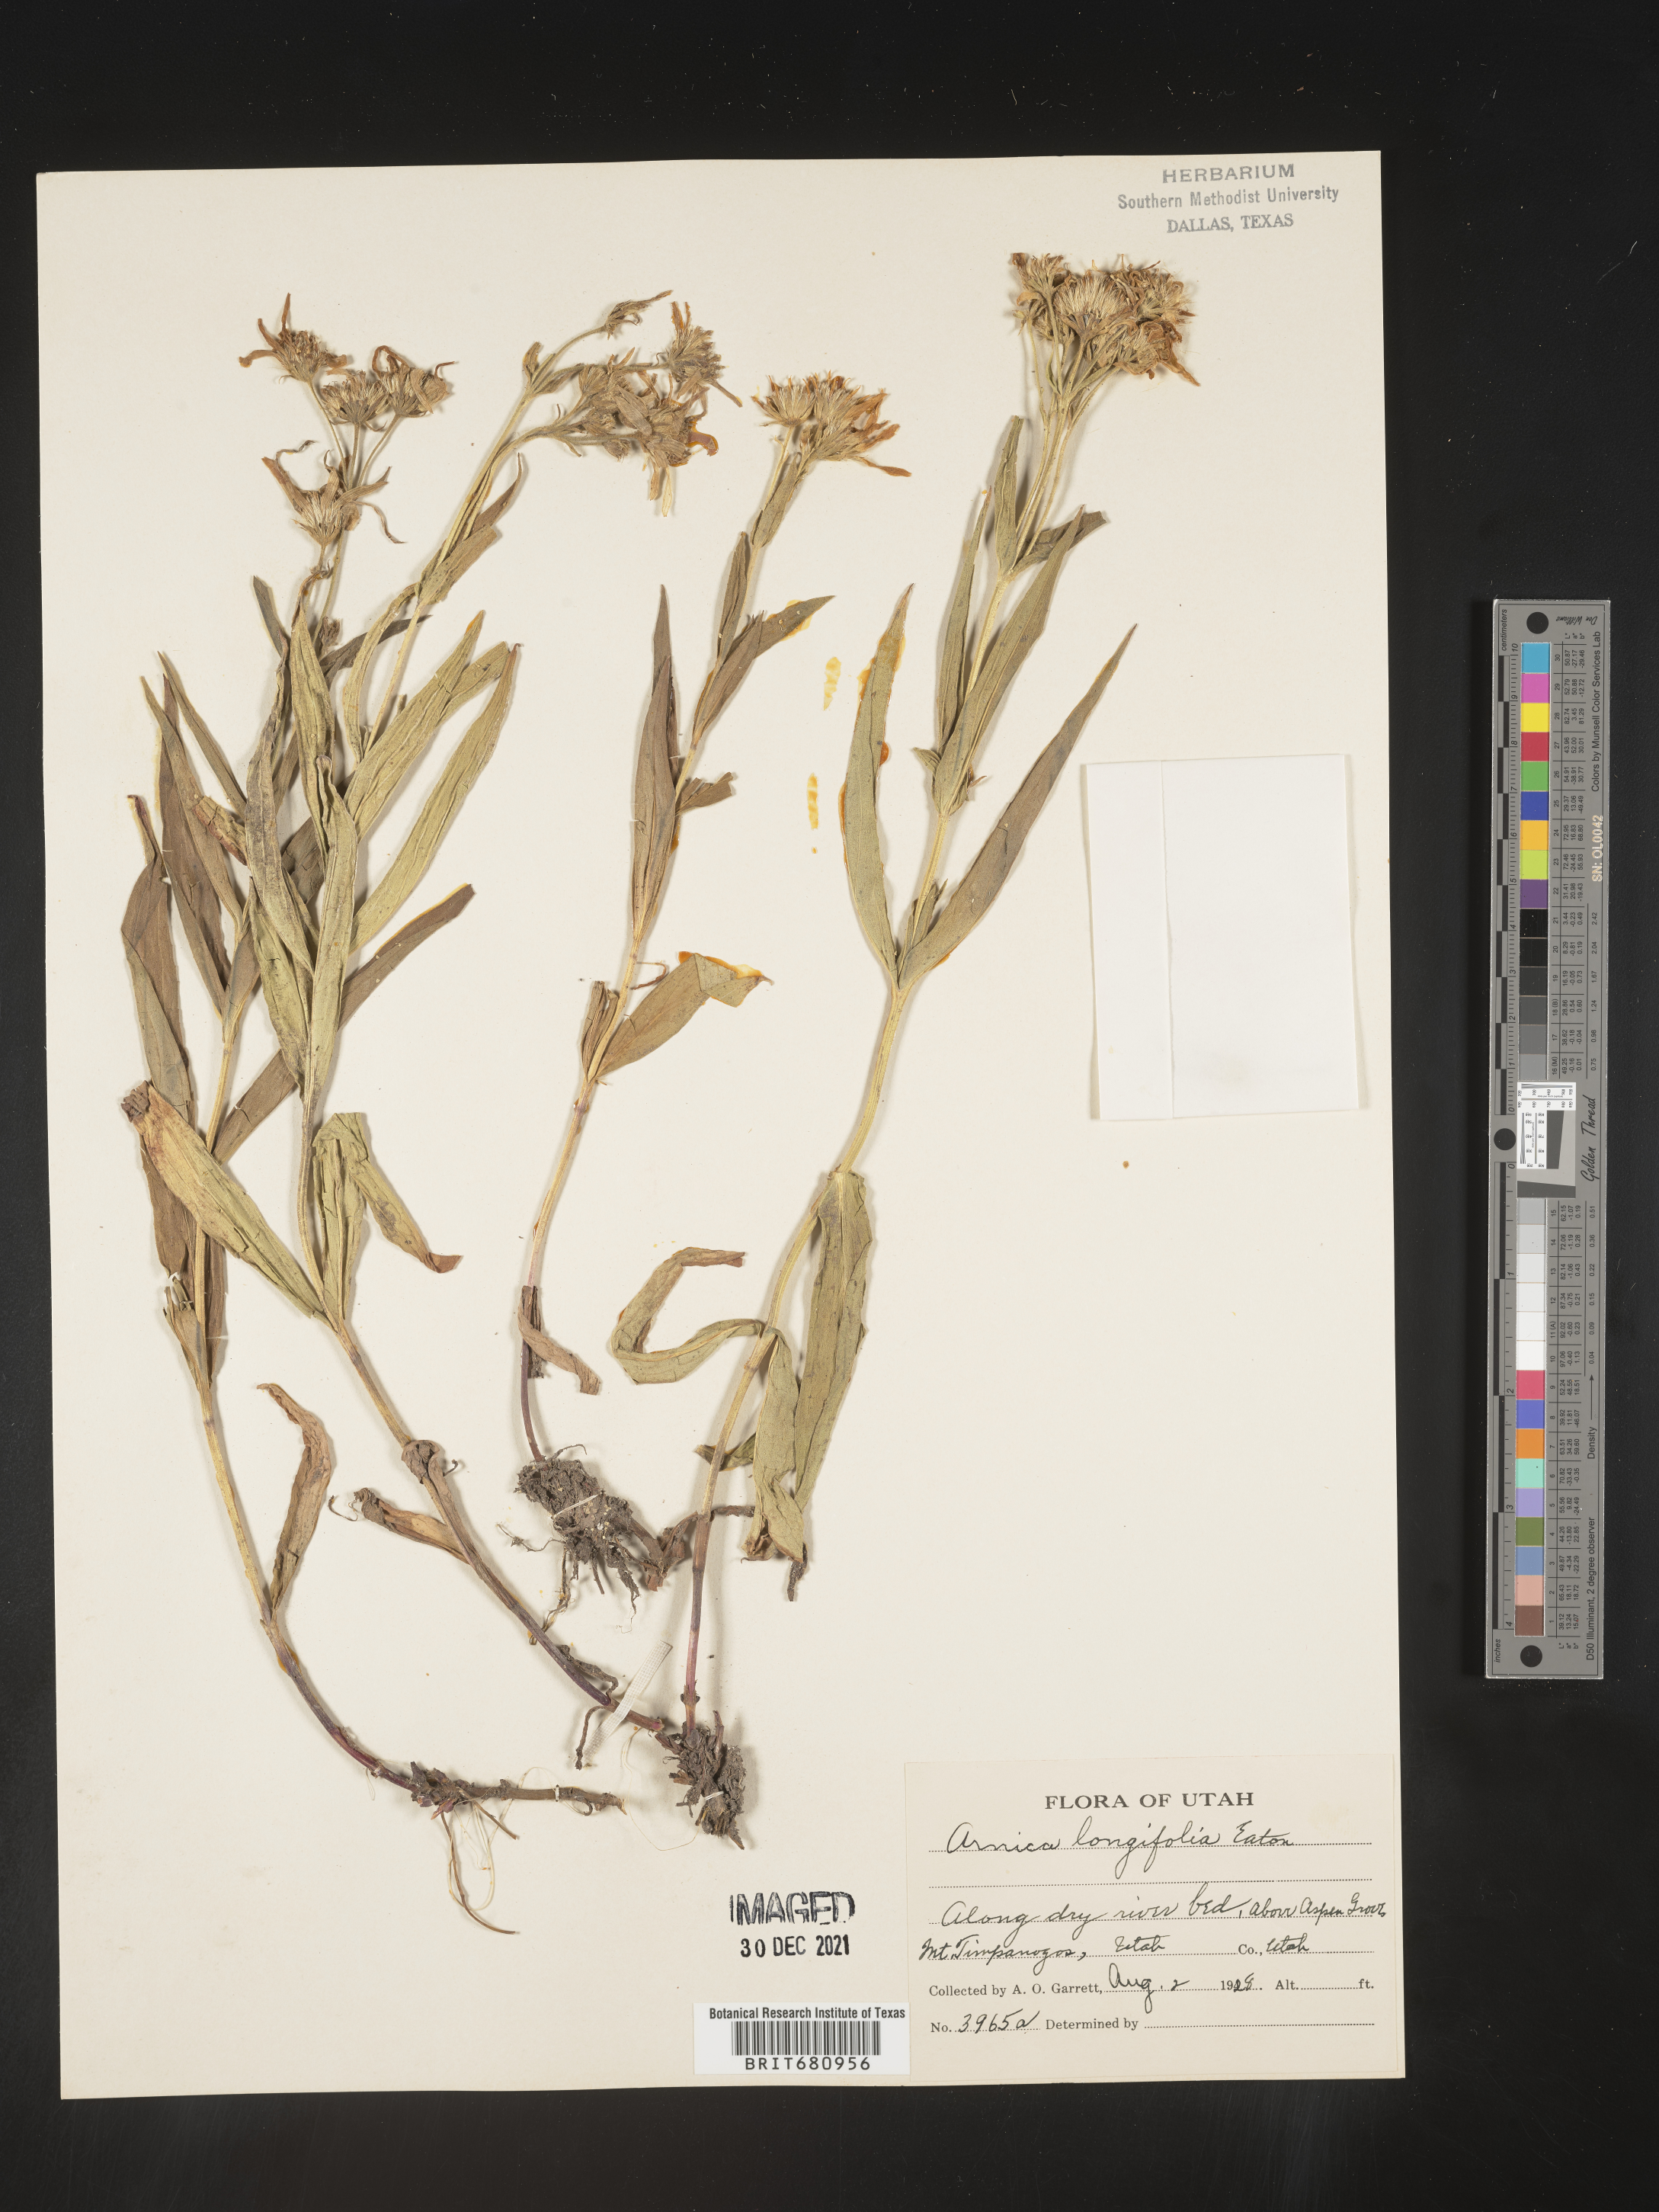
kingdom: Plantae
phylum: Tracheophyta
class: Magnoliopsida
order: Asterales
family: Asteraceae
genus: Arnica
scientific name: Arnica longifolia
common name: Spear-leaf arnica
